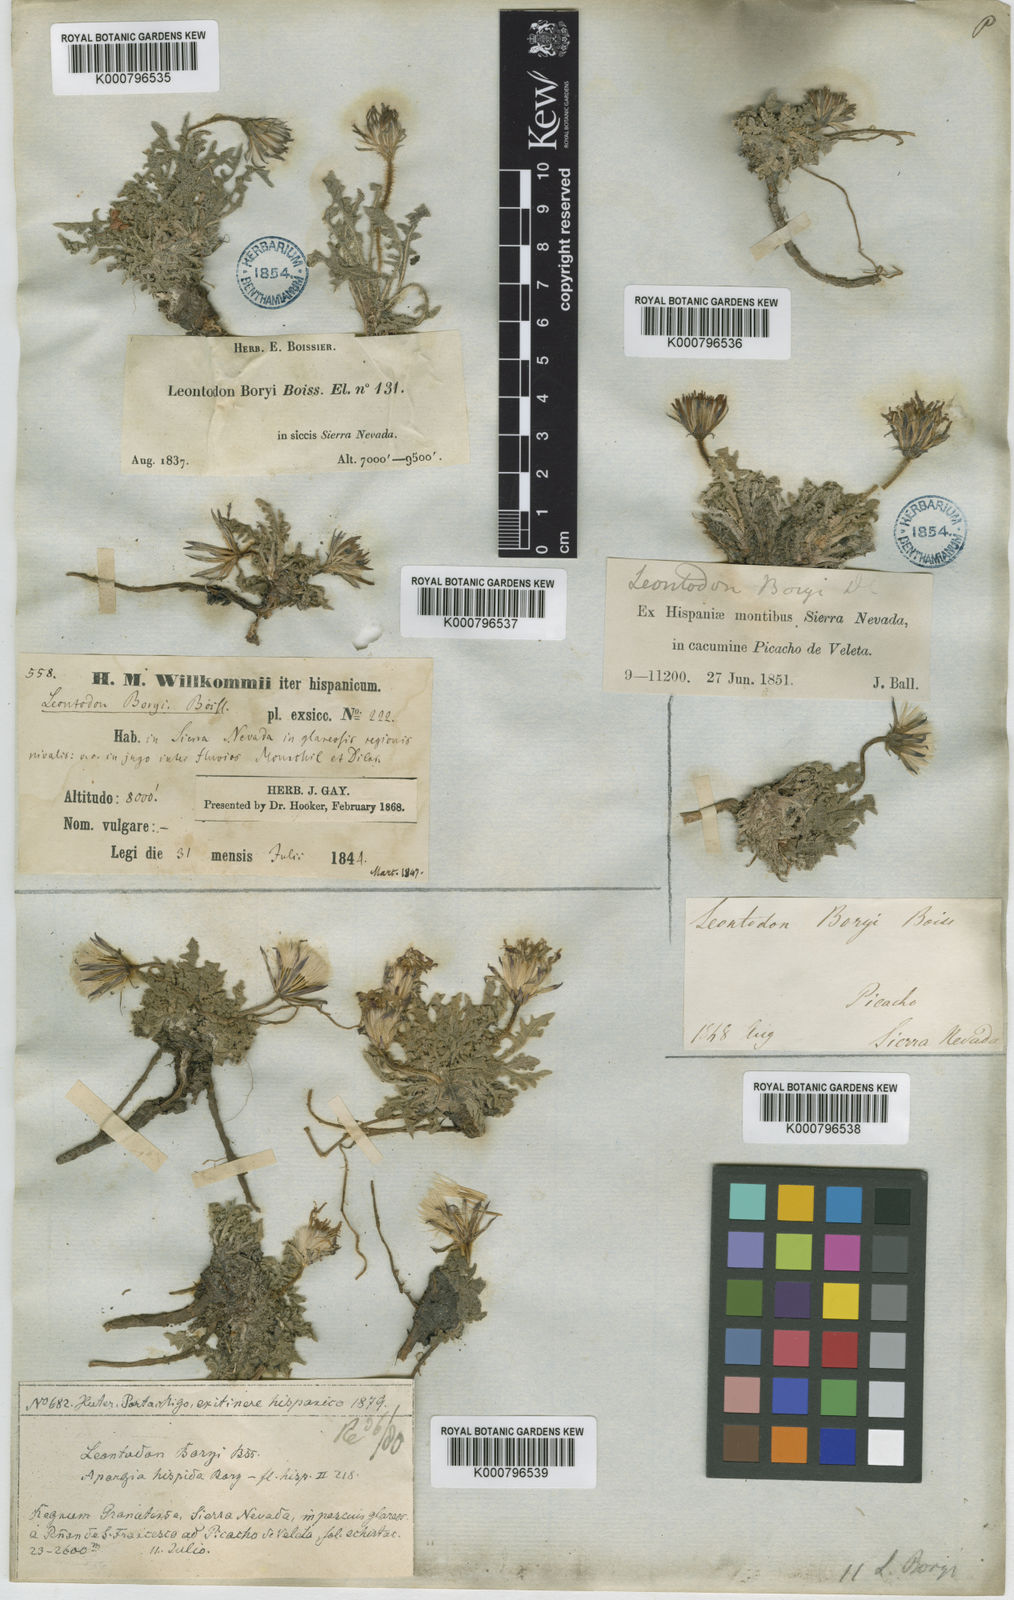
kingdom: Plantae
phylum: Tracheophyta
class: Magnoliopsida
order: Asterales
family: Asteraceae
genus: Leontodon
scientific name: Leontodon boryi
